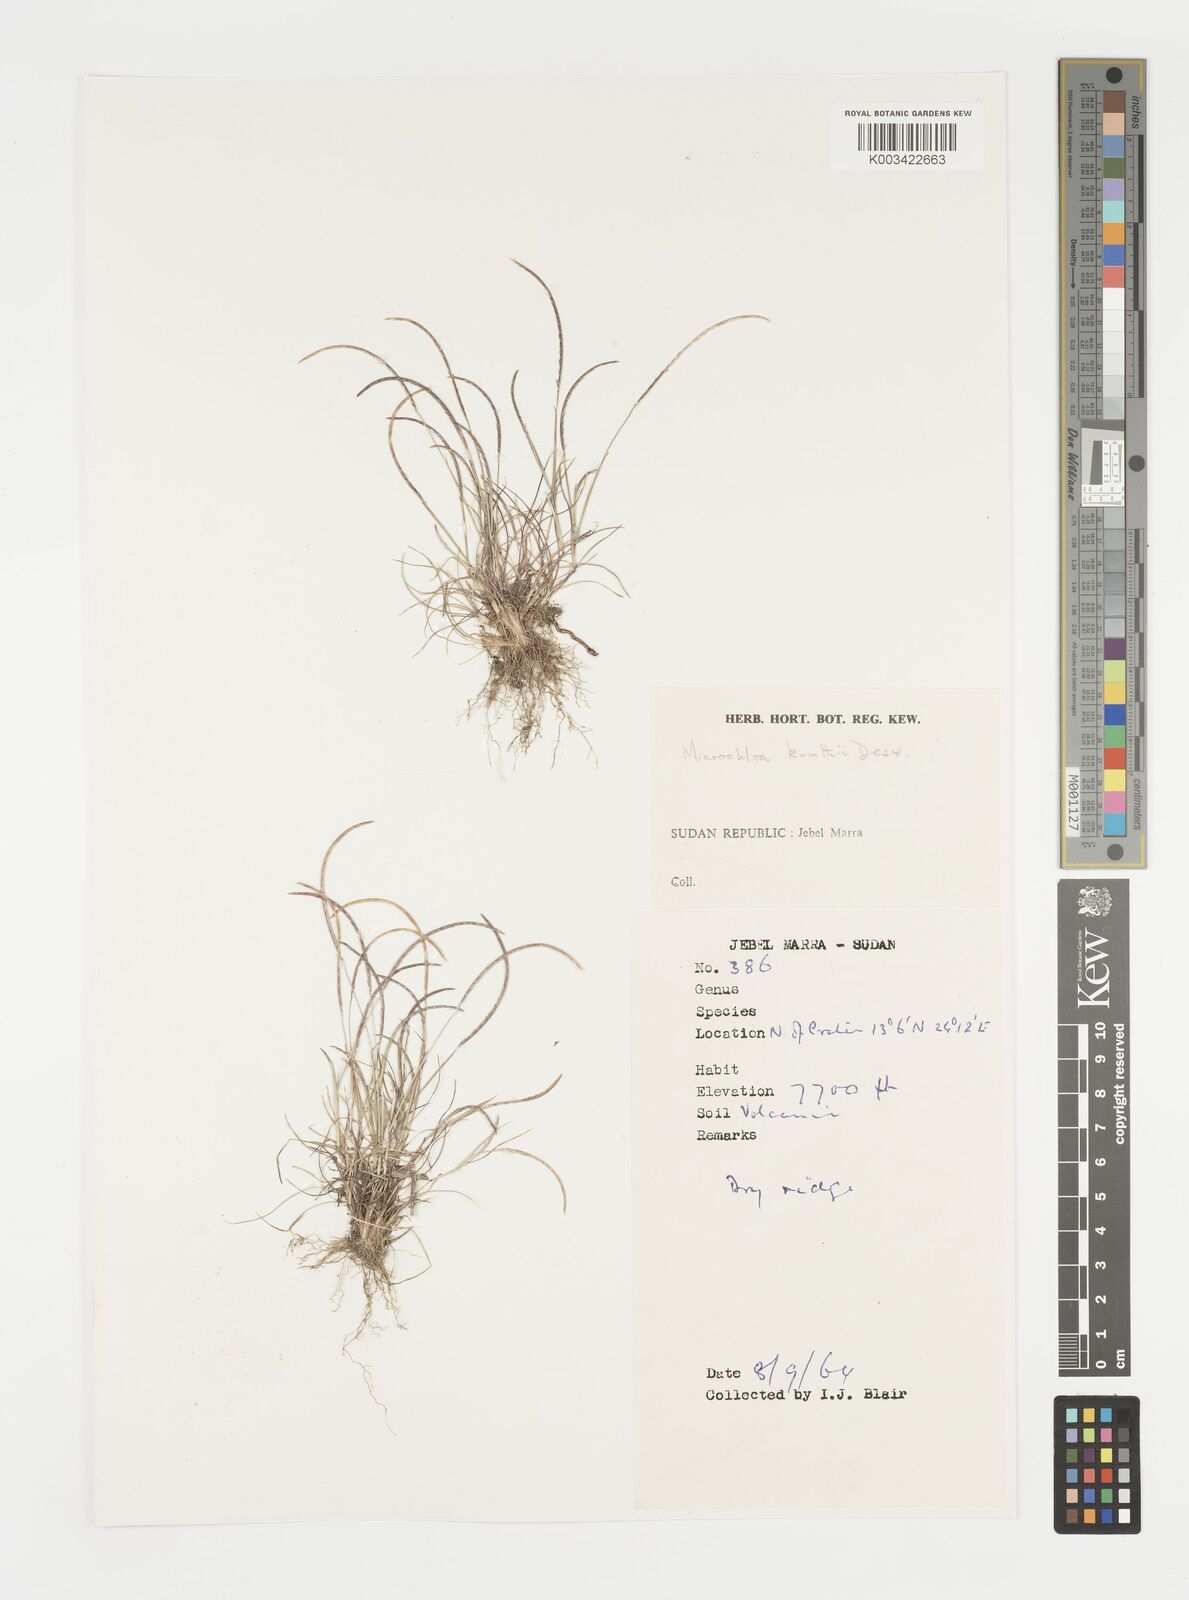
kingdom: Plantae
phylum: Tracheophyta
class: Liliopsida
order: Poales
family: Poaceae
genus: Microchloa
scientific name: Microchloa kunthii
